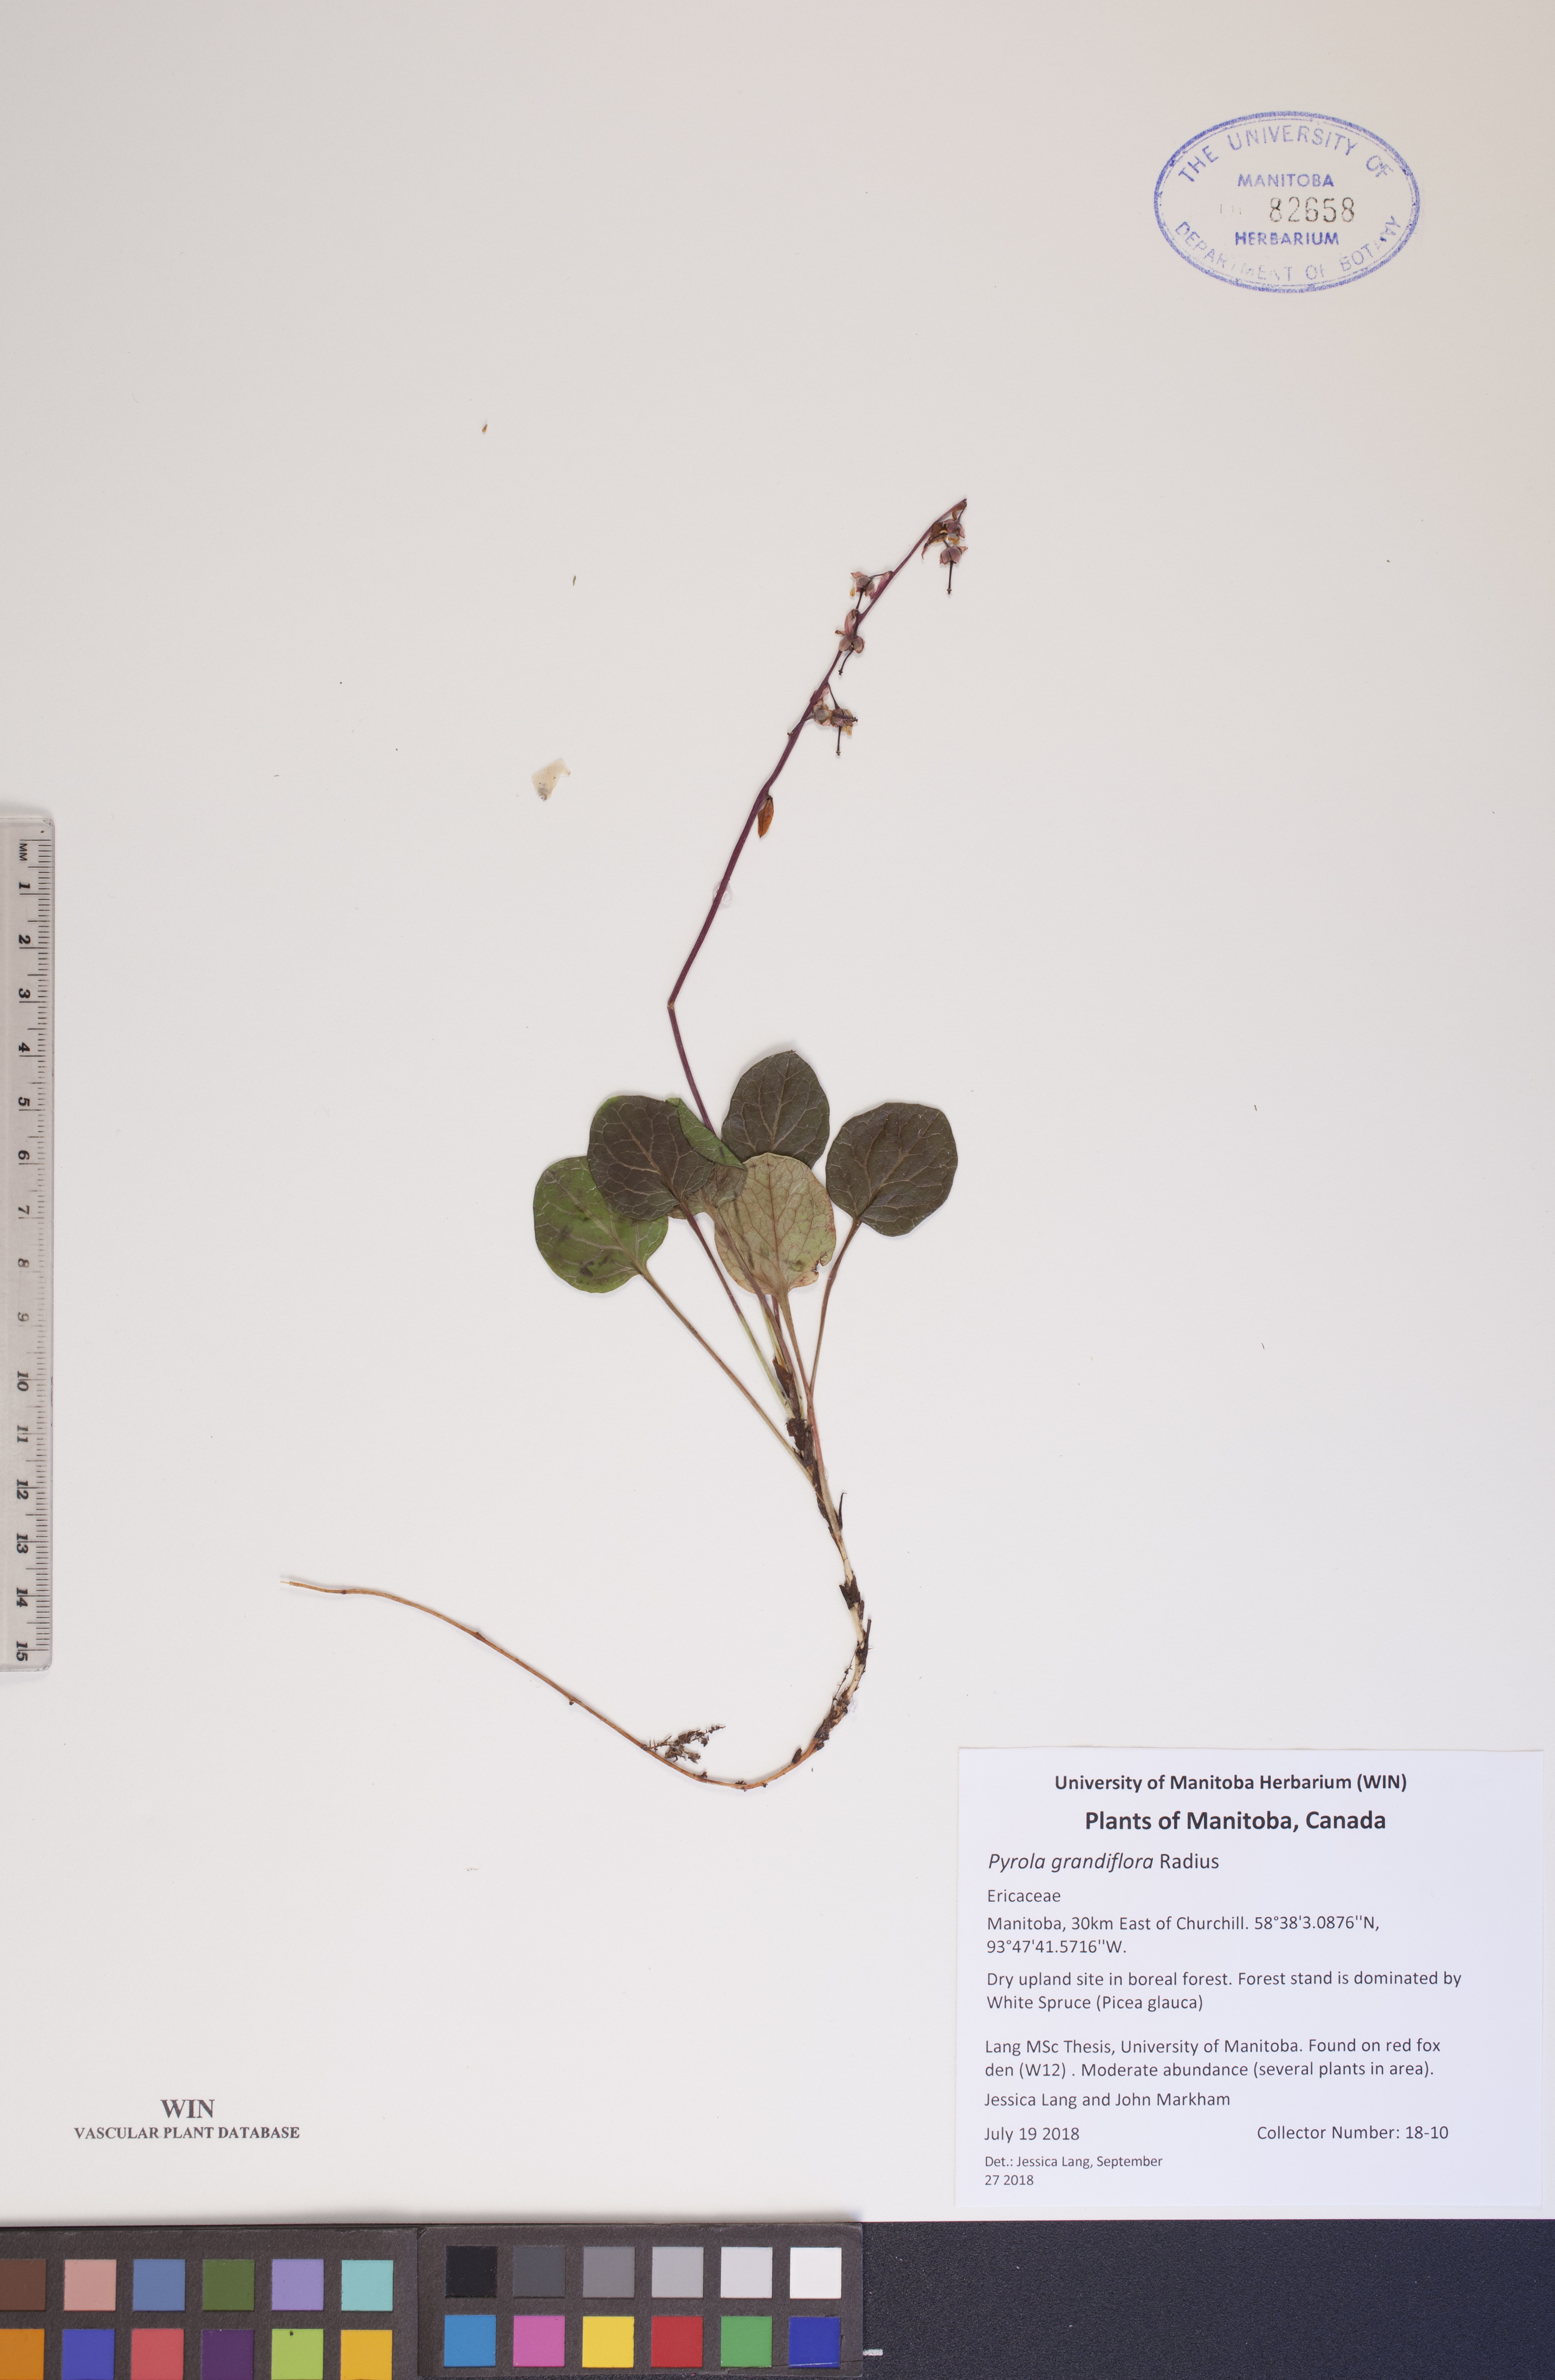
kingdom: Plantae
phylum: Tracheophyta
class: Magnoliopsida
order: Ericales
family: Ericaceae
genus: Pyrola
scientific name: Pyrola grandiflora
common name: Arctic pyrola
